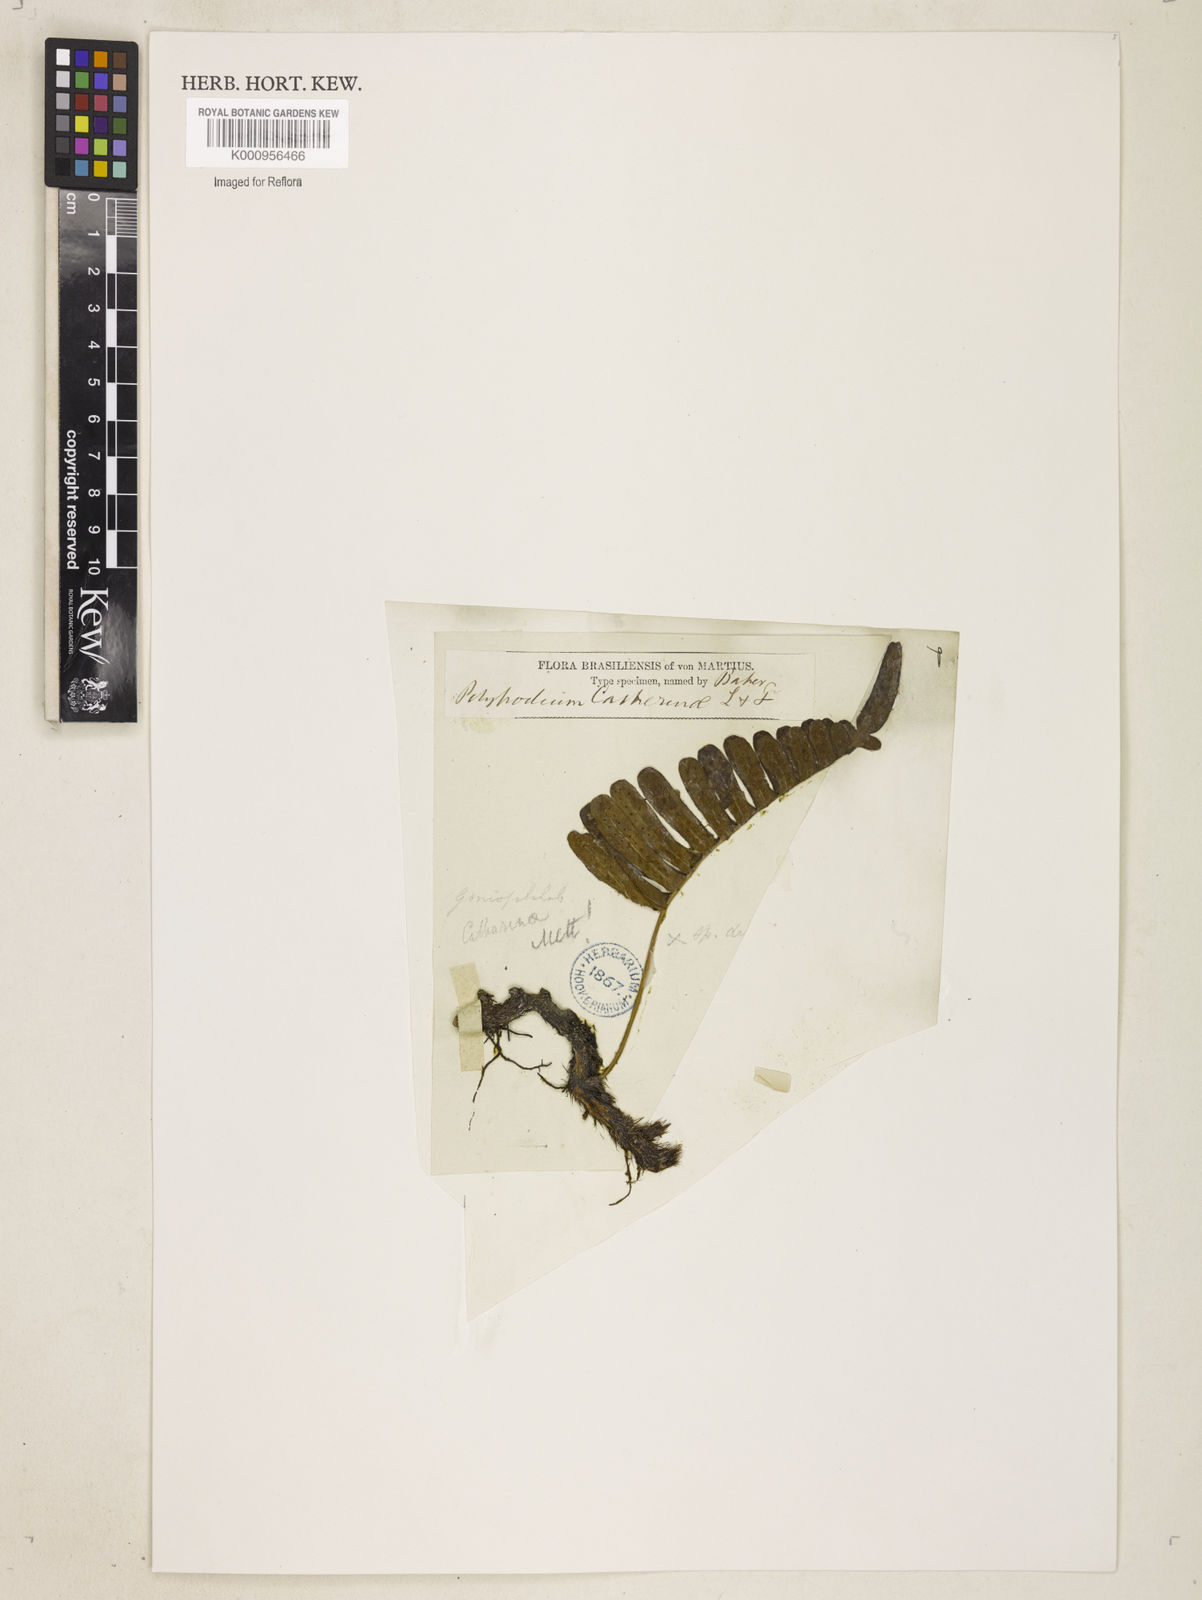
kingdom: Plantae
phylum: Tracheophyta
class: Polypodiopsida
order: Polypodiales
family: Polypodiaceae
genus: Polypodium
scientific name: Polypodium
